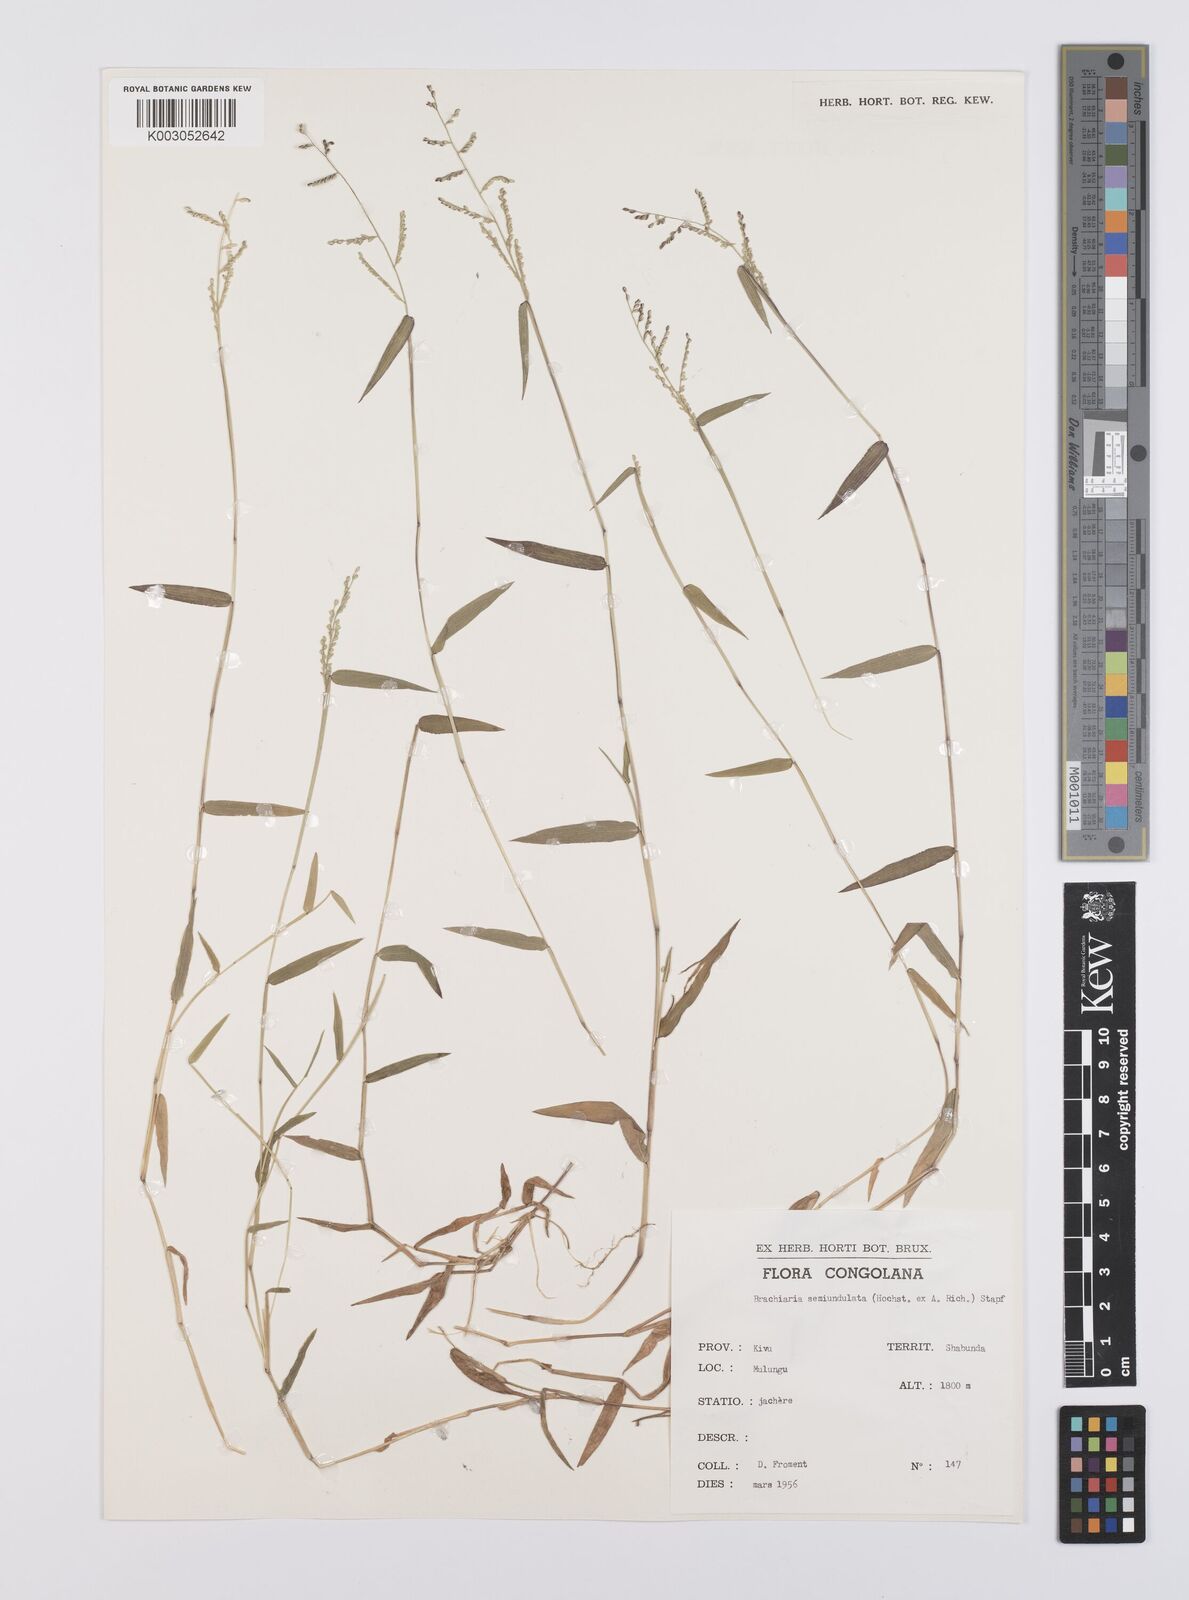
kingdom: Plantae
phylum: Tracheophyta
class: Liliopsida
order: Poales
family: Poaceae
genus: Urochloa
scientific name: Urochloa comata
